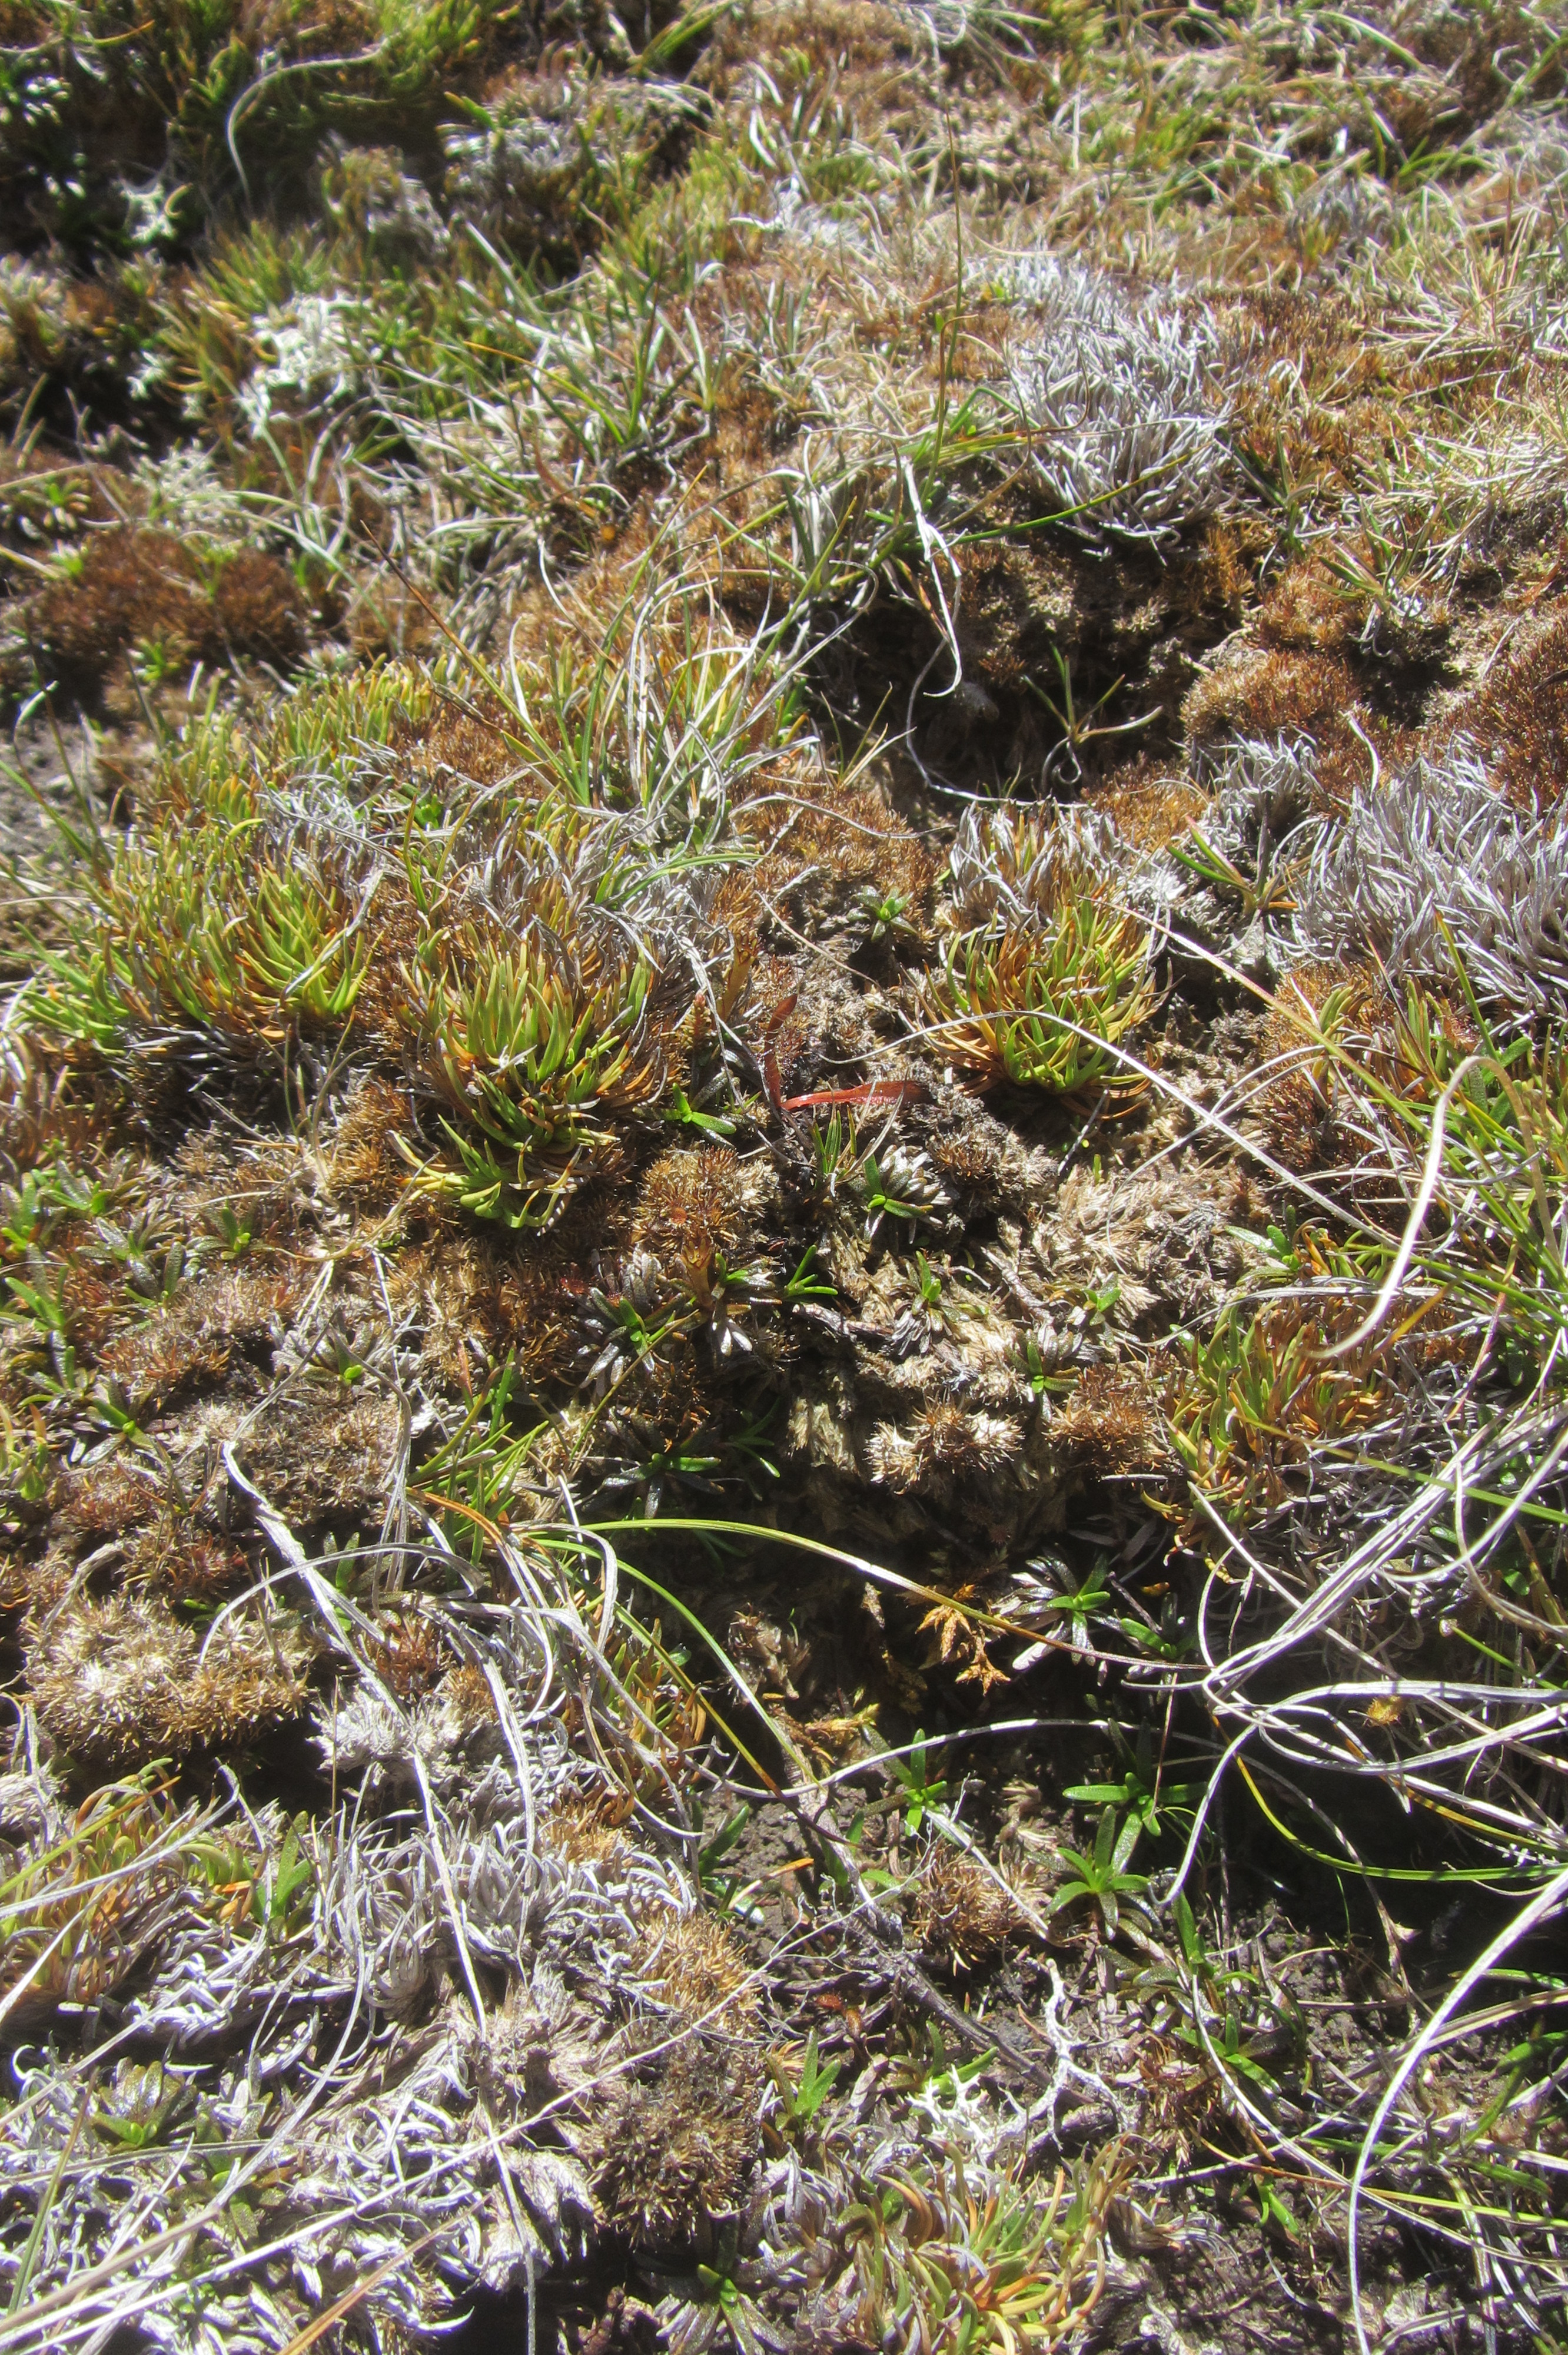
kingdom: Plantae
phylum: Tracheophyta
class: Magnoliopsida
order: Asterales
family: Asteraceae
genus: Abrotanella
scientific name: Abrotanella fertilis
